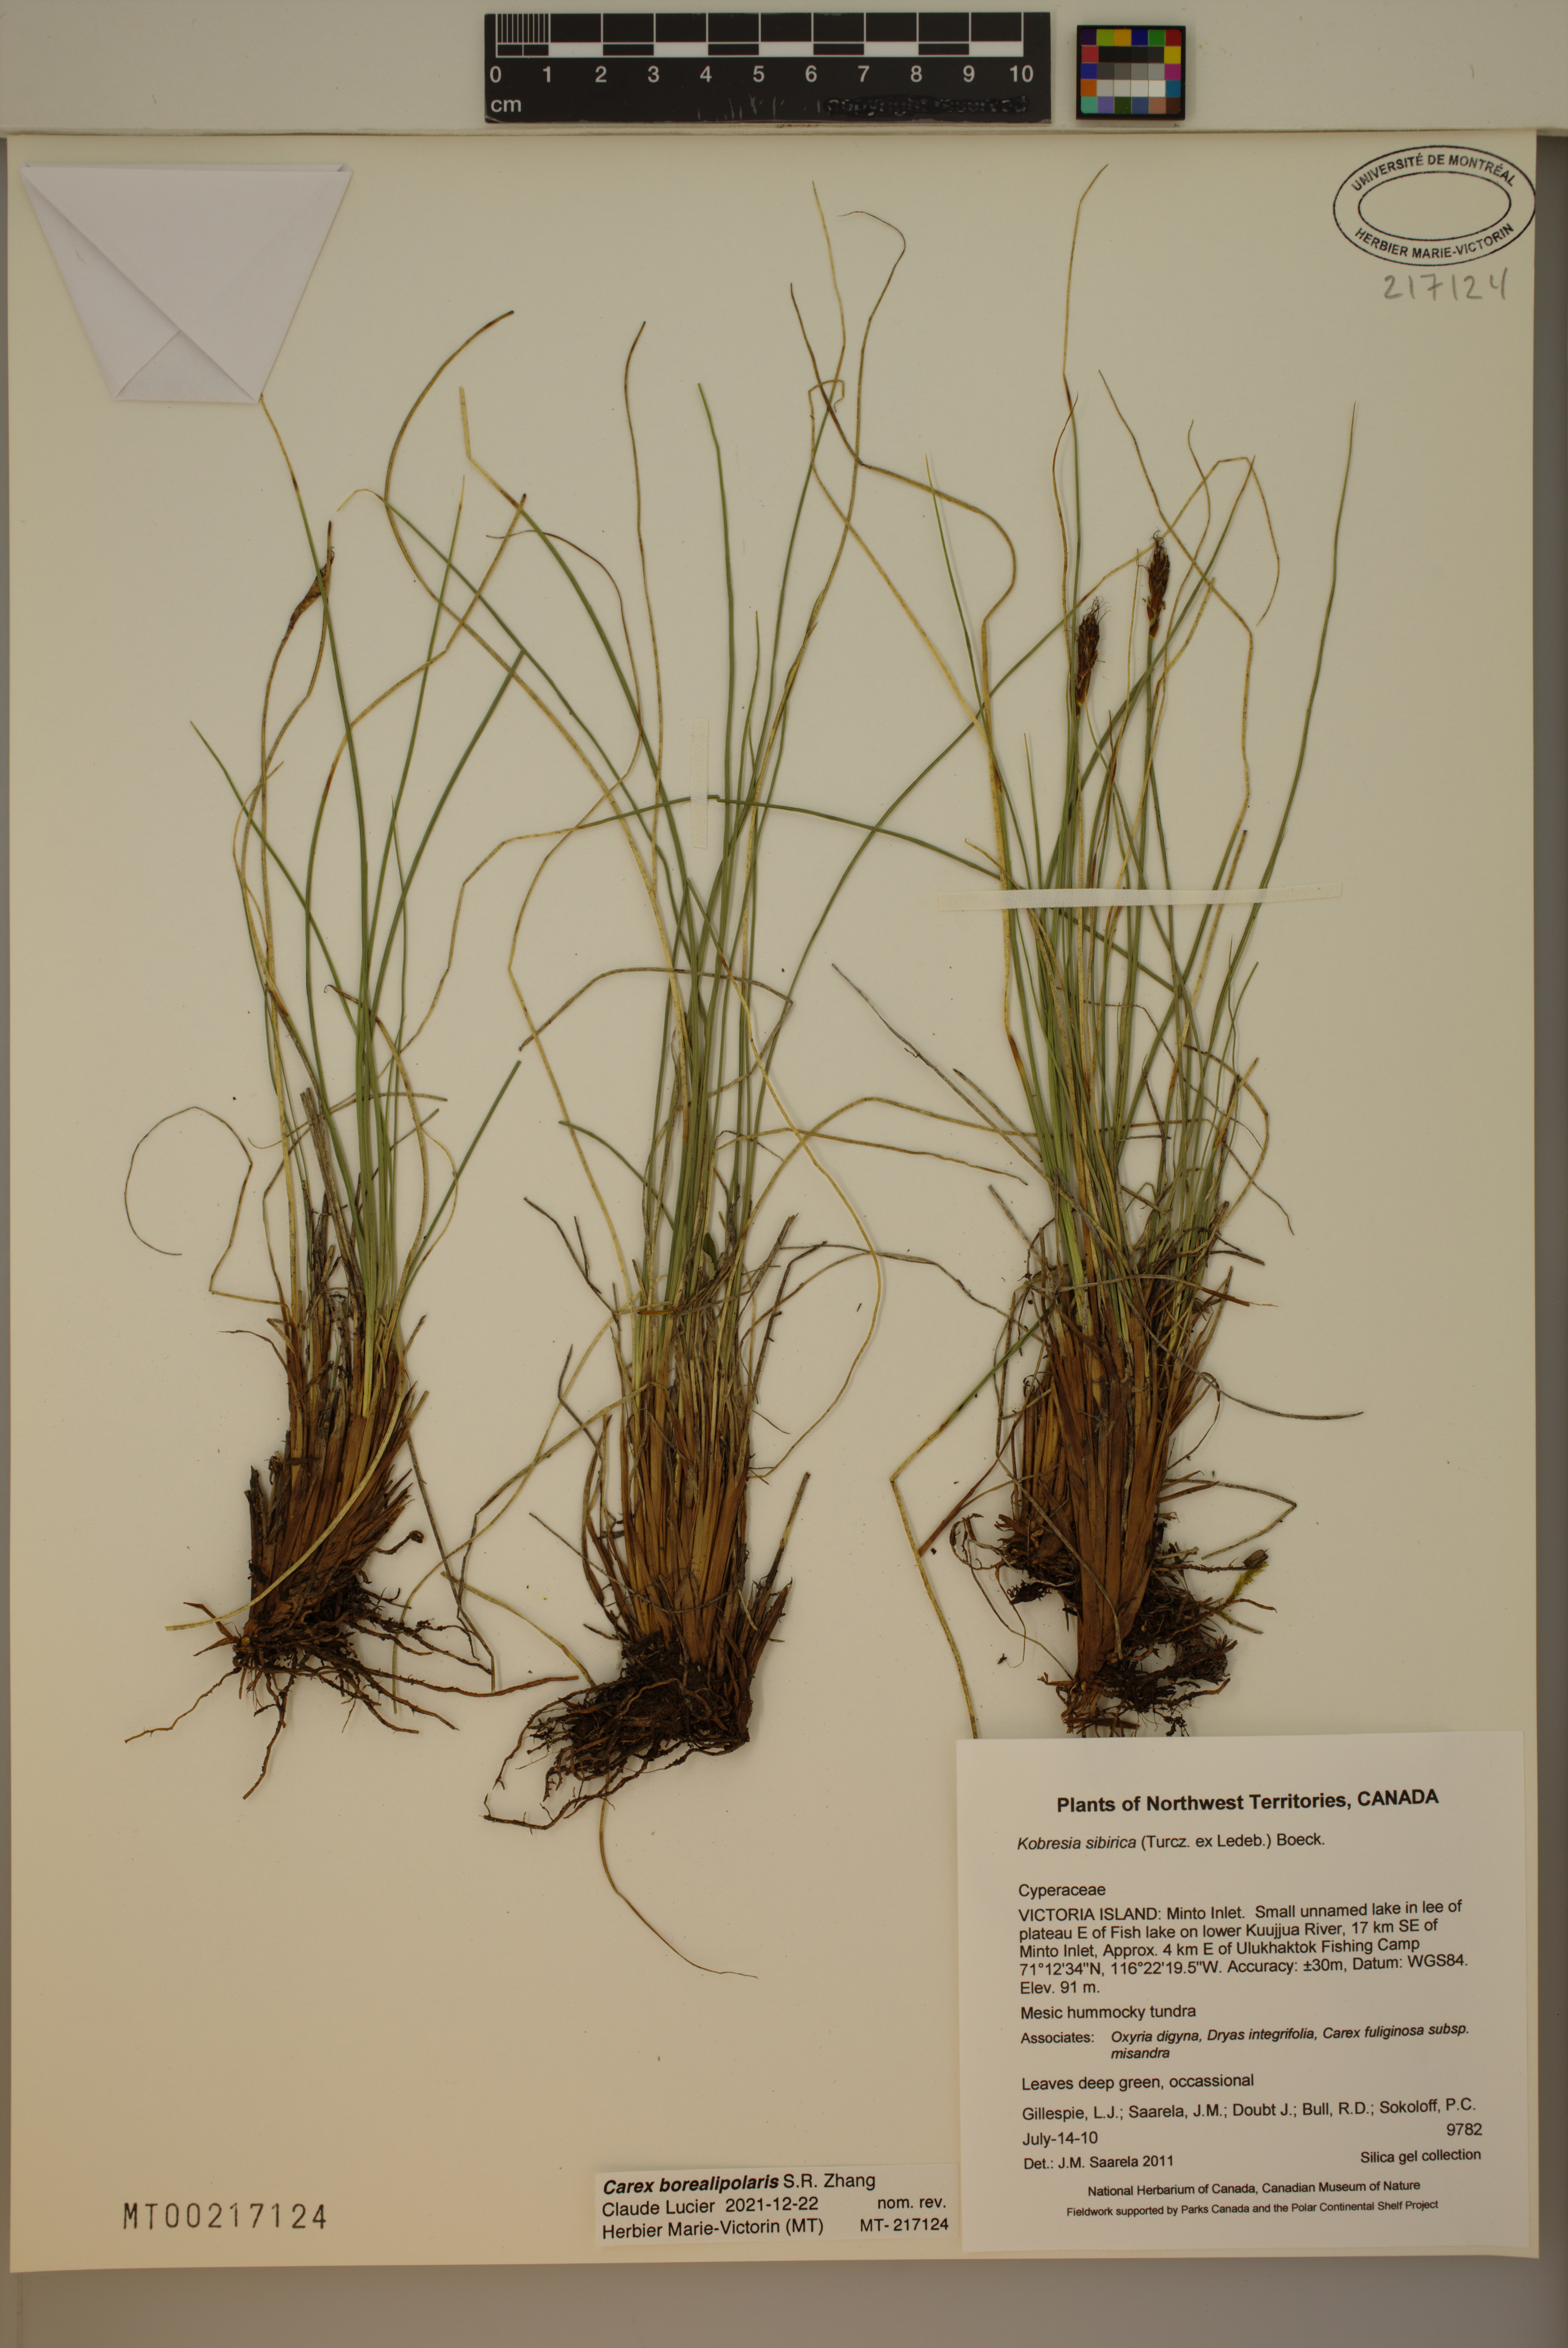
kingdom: Plantae
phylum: Tracheophyta
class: Liliopsida
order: Poales
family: Cyperaceae
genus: Carex
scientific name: Carex borealipolaris
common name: Siberian bog sedge
